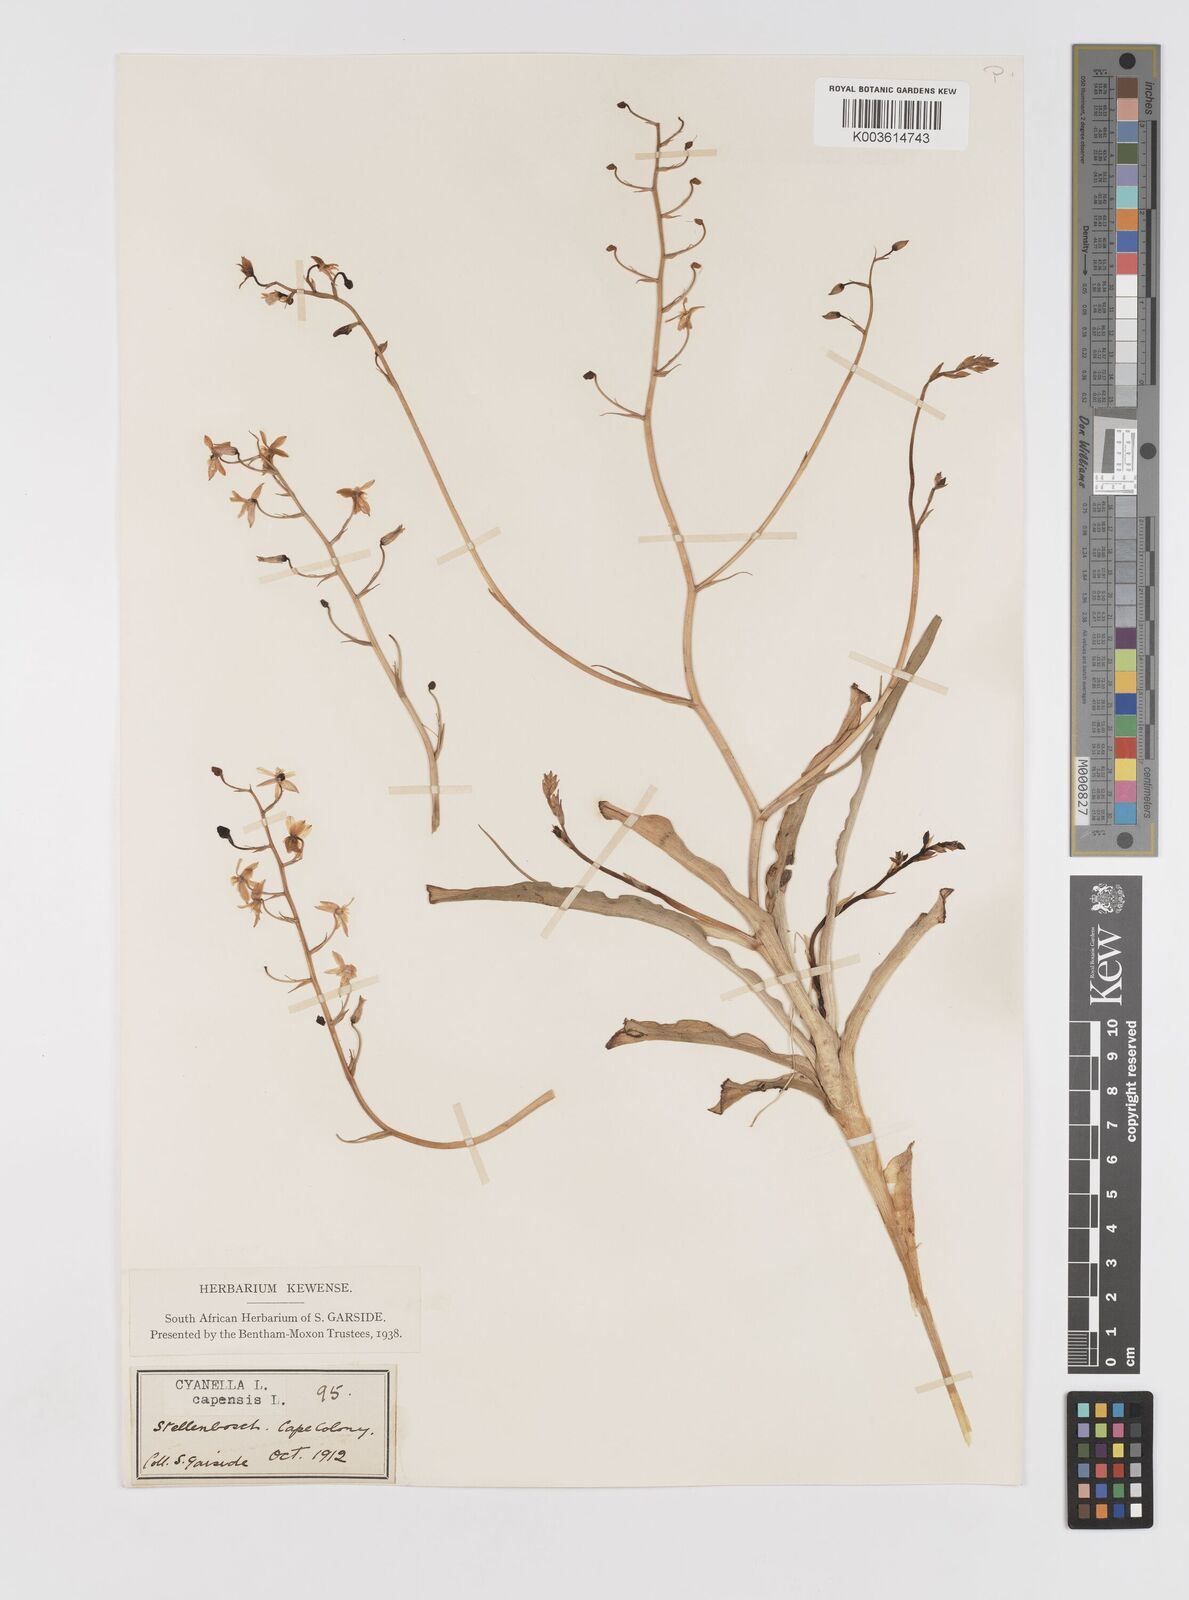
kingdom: Plantae
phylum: Tracheophyta
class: Liliopsida
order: Asparagales
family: Tecophilaeaceae
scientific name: Tecophilaeaceae
